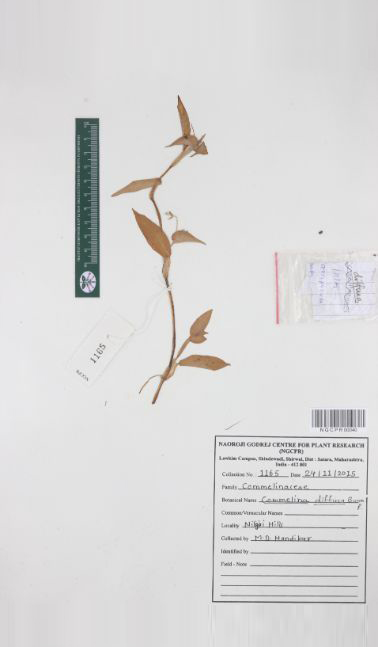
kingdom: Plantae
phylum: Tracheophyta
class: Liliopsida
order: Commelinales
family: Commelinaceae
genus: Commelina
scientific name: Commelina diffusa
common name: Climbing dayflower
